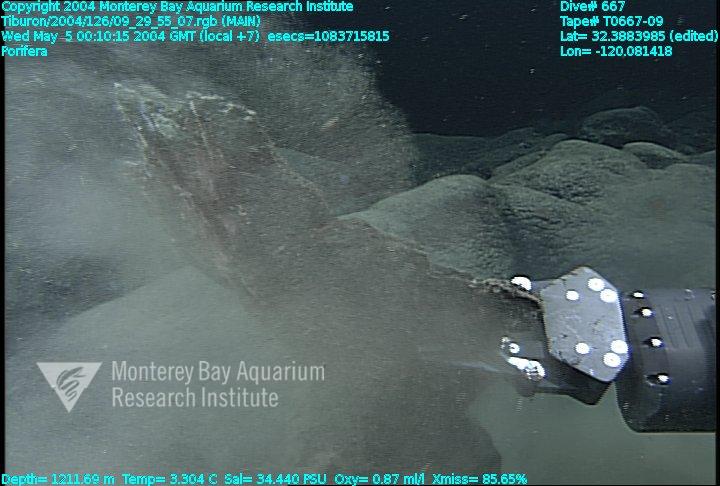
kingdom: Animalia
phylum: Porifera
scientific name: Porifera
